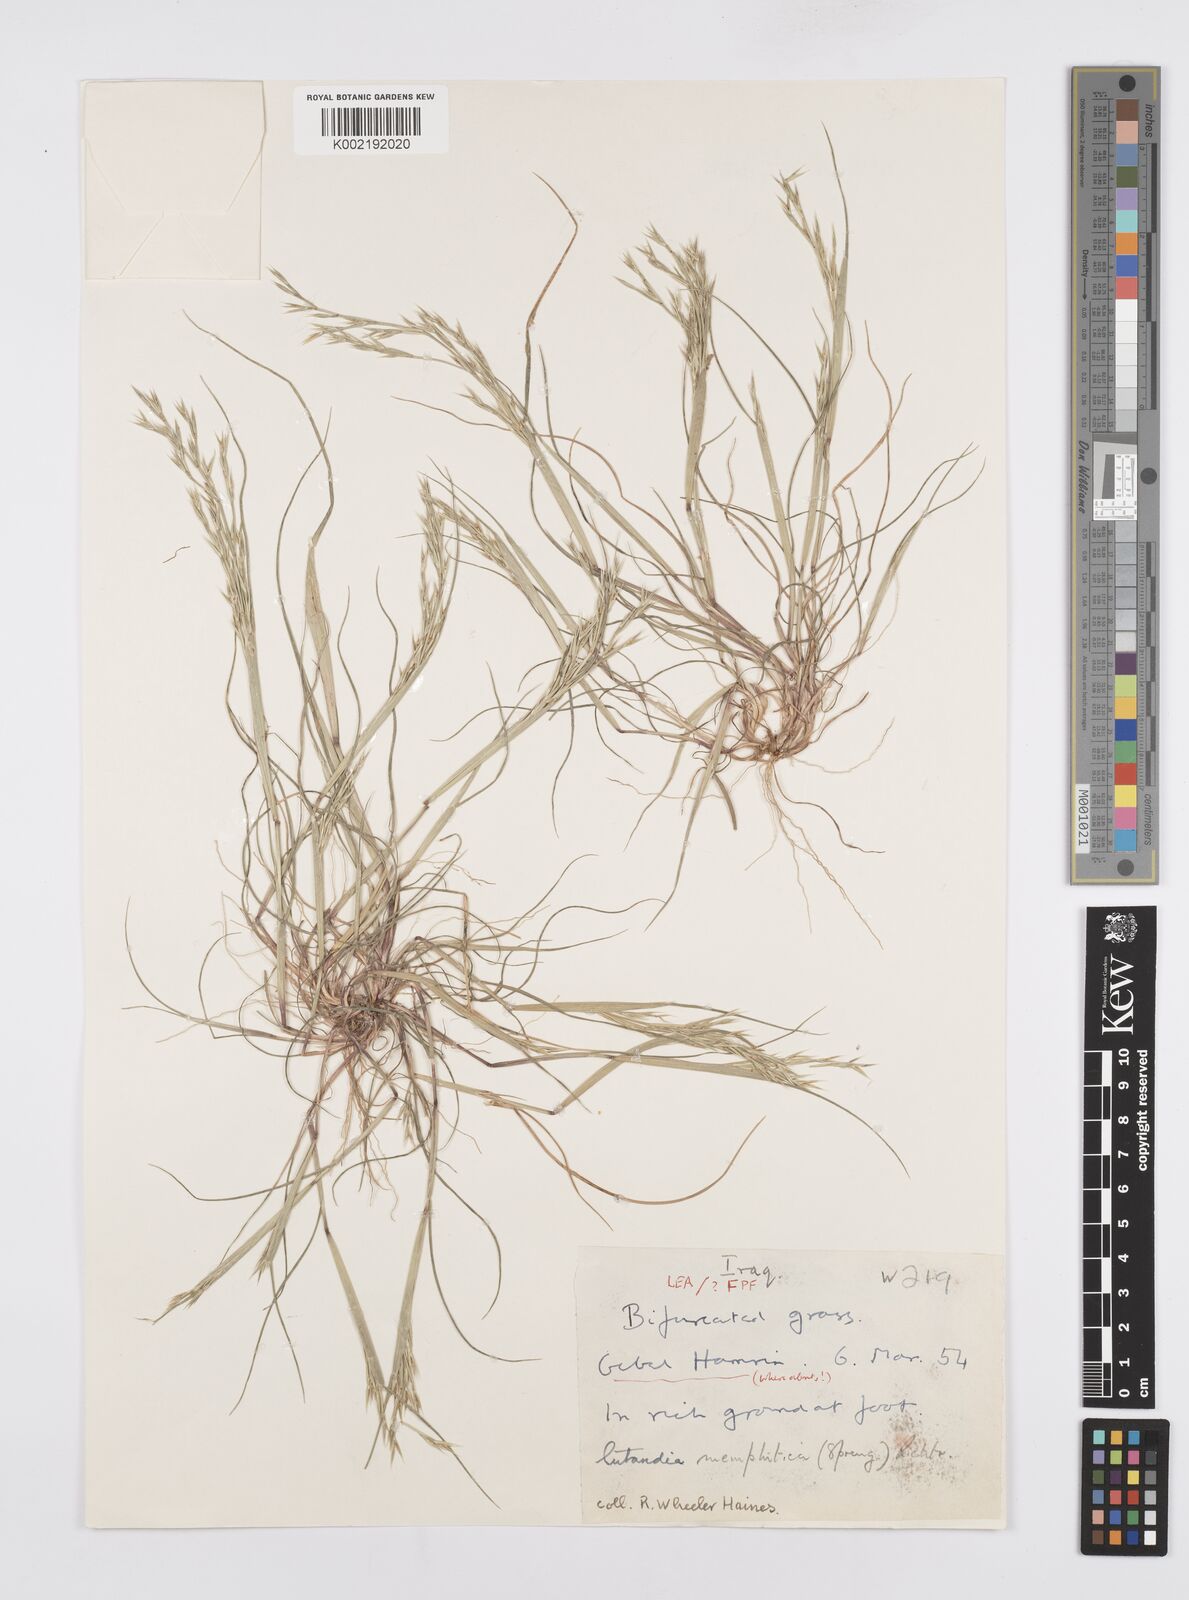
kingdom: Plantae
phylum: Tracheophyta
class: Liliopsida
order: Poales
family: Poaceae
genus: Cutandia
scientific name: Cutandia memphitica
